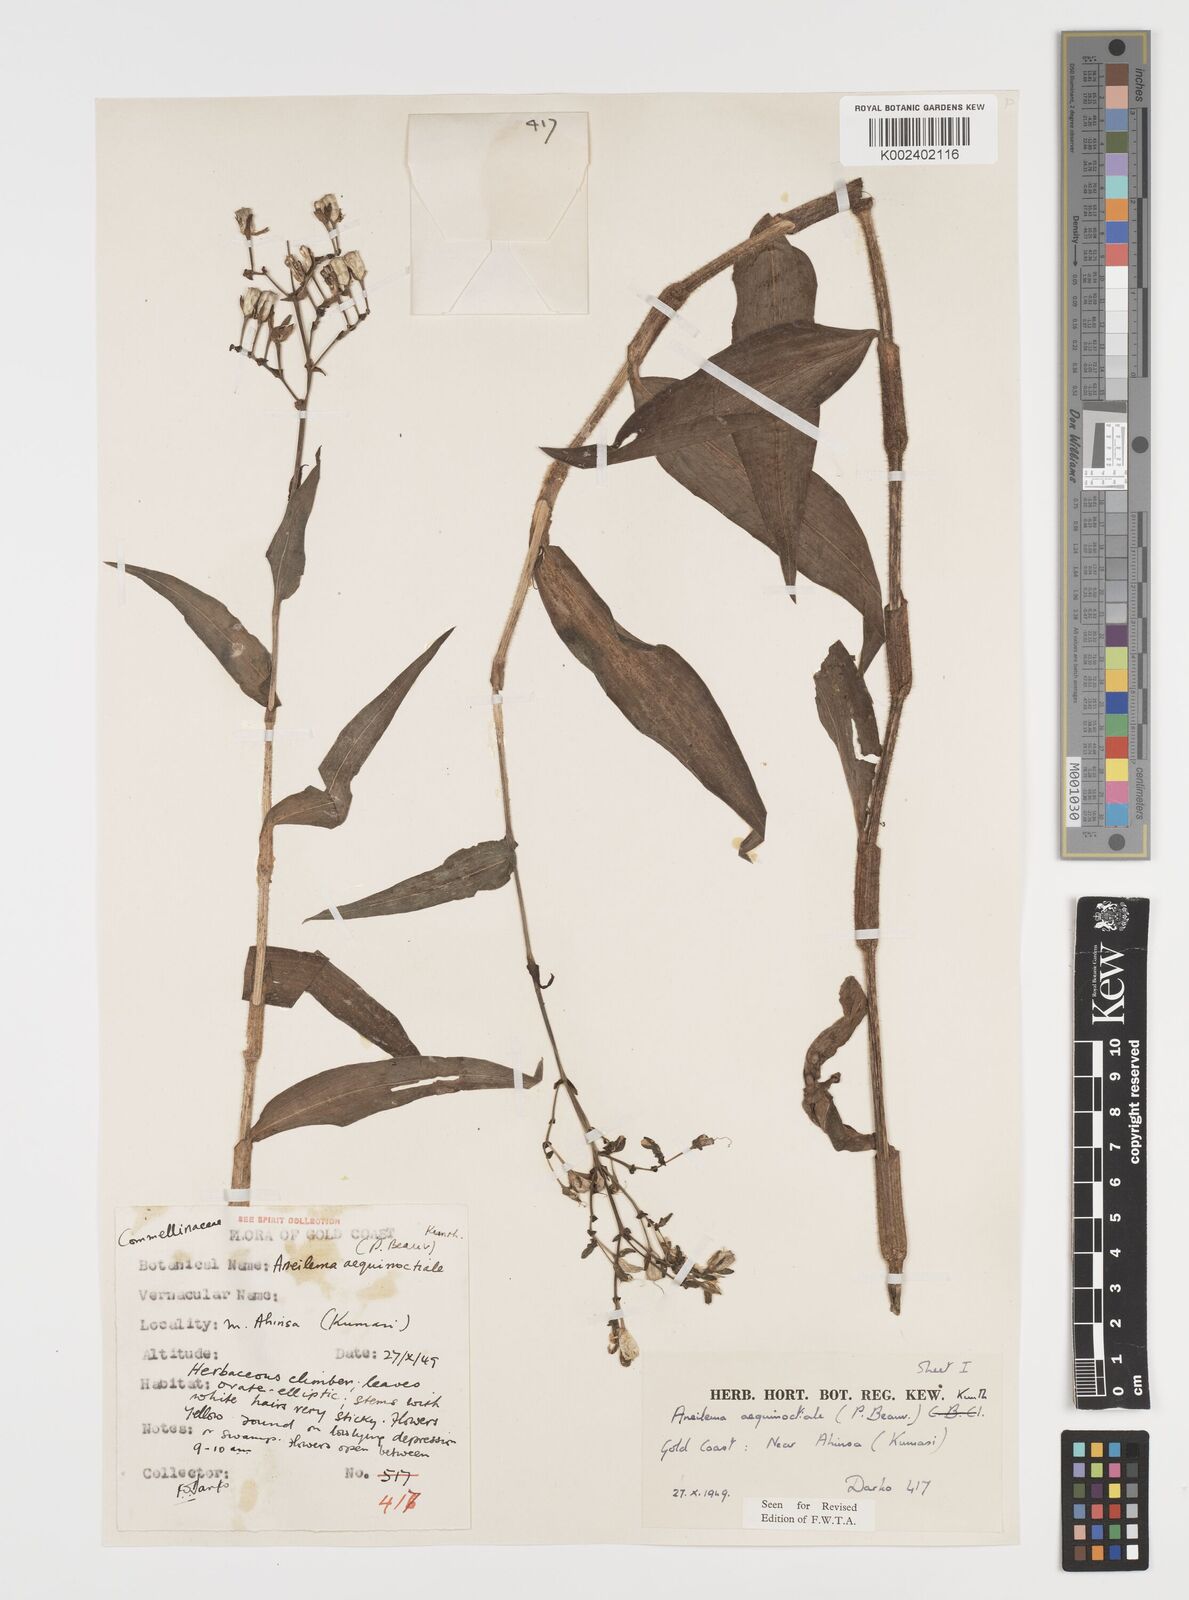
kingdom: Plantae
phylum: Tracheophyta
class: Liliopsida
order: Commelinales
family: Commelinaceae
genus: Aneilema
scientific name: Aneilema aequinoctiale
